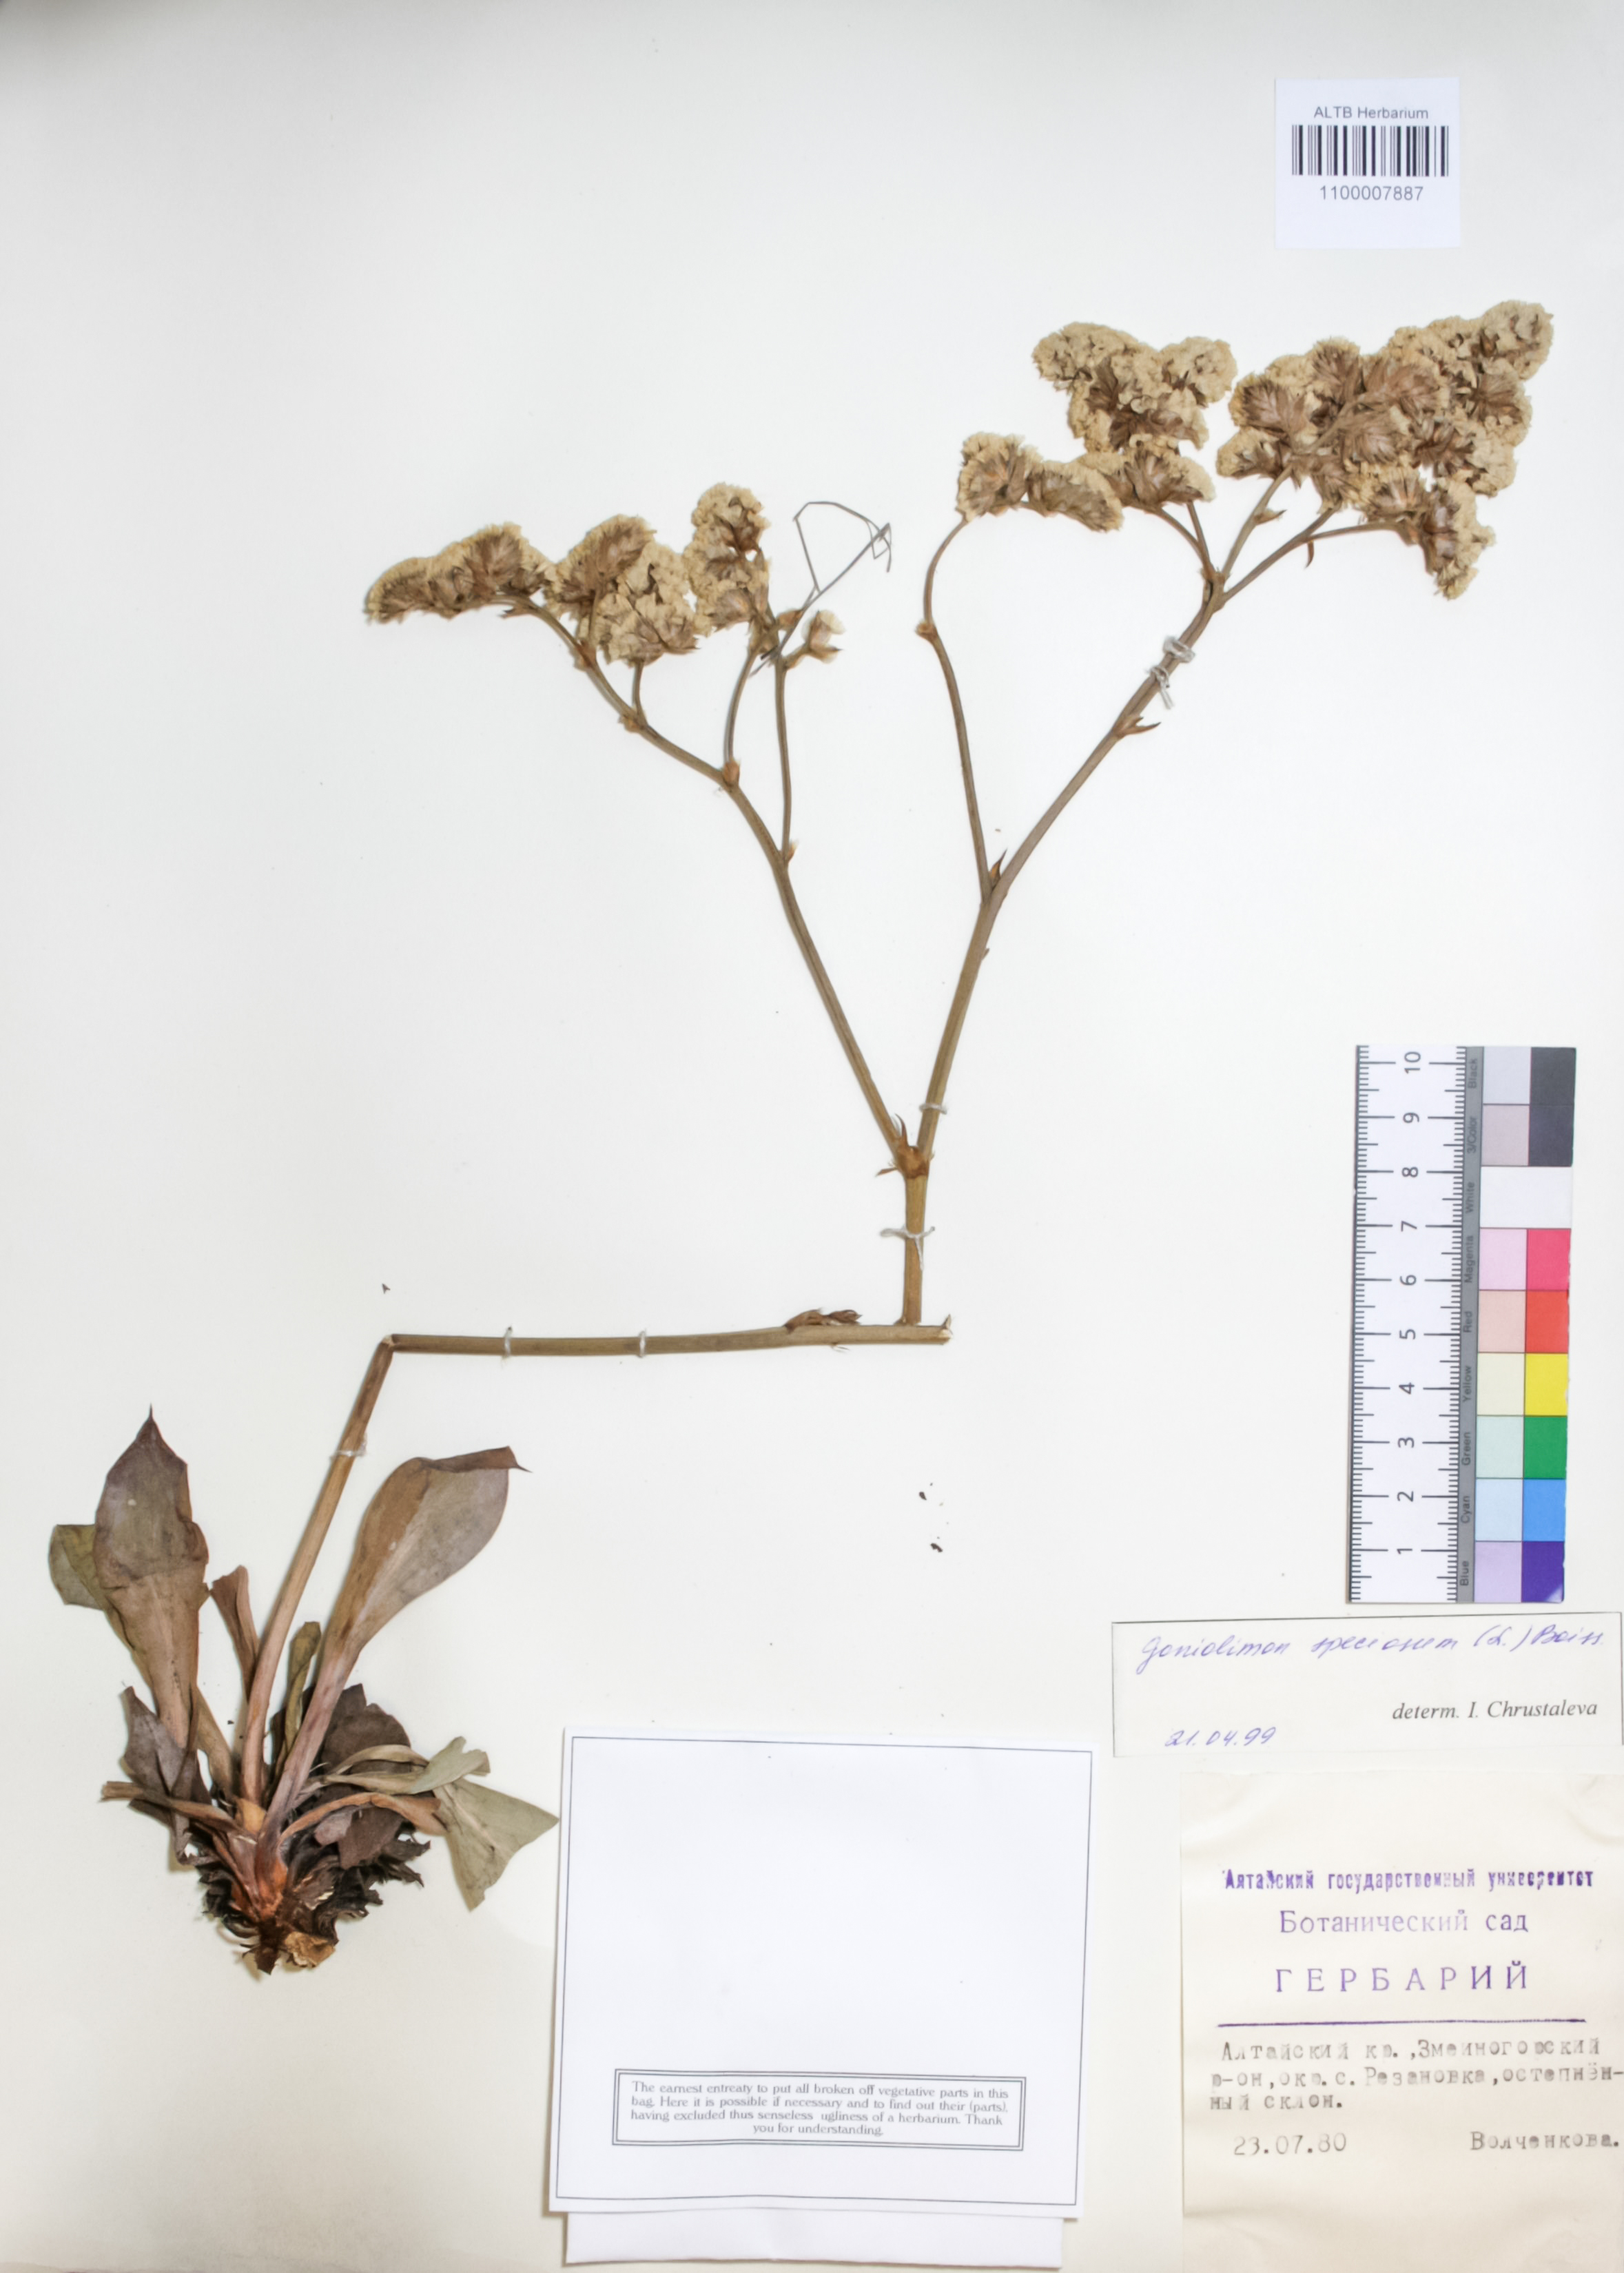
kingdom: Plantae
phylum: Tracheophyta
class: Magnoliopsida
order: Caryophyllales
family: Plumbaginaceae
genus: Goniolimon
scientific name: Goniolimon speciosum
